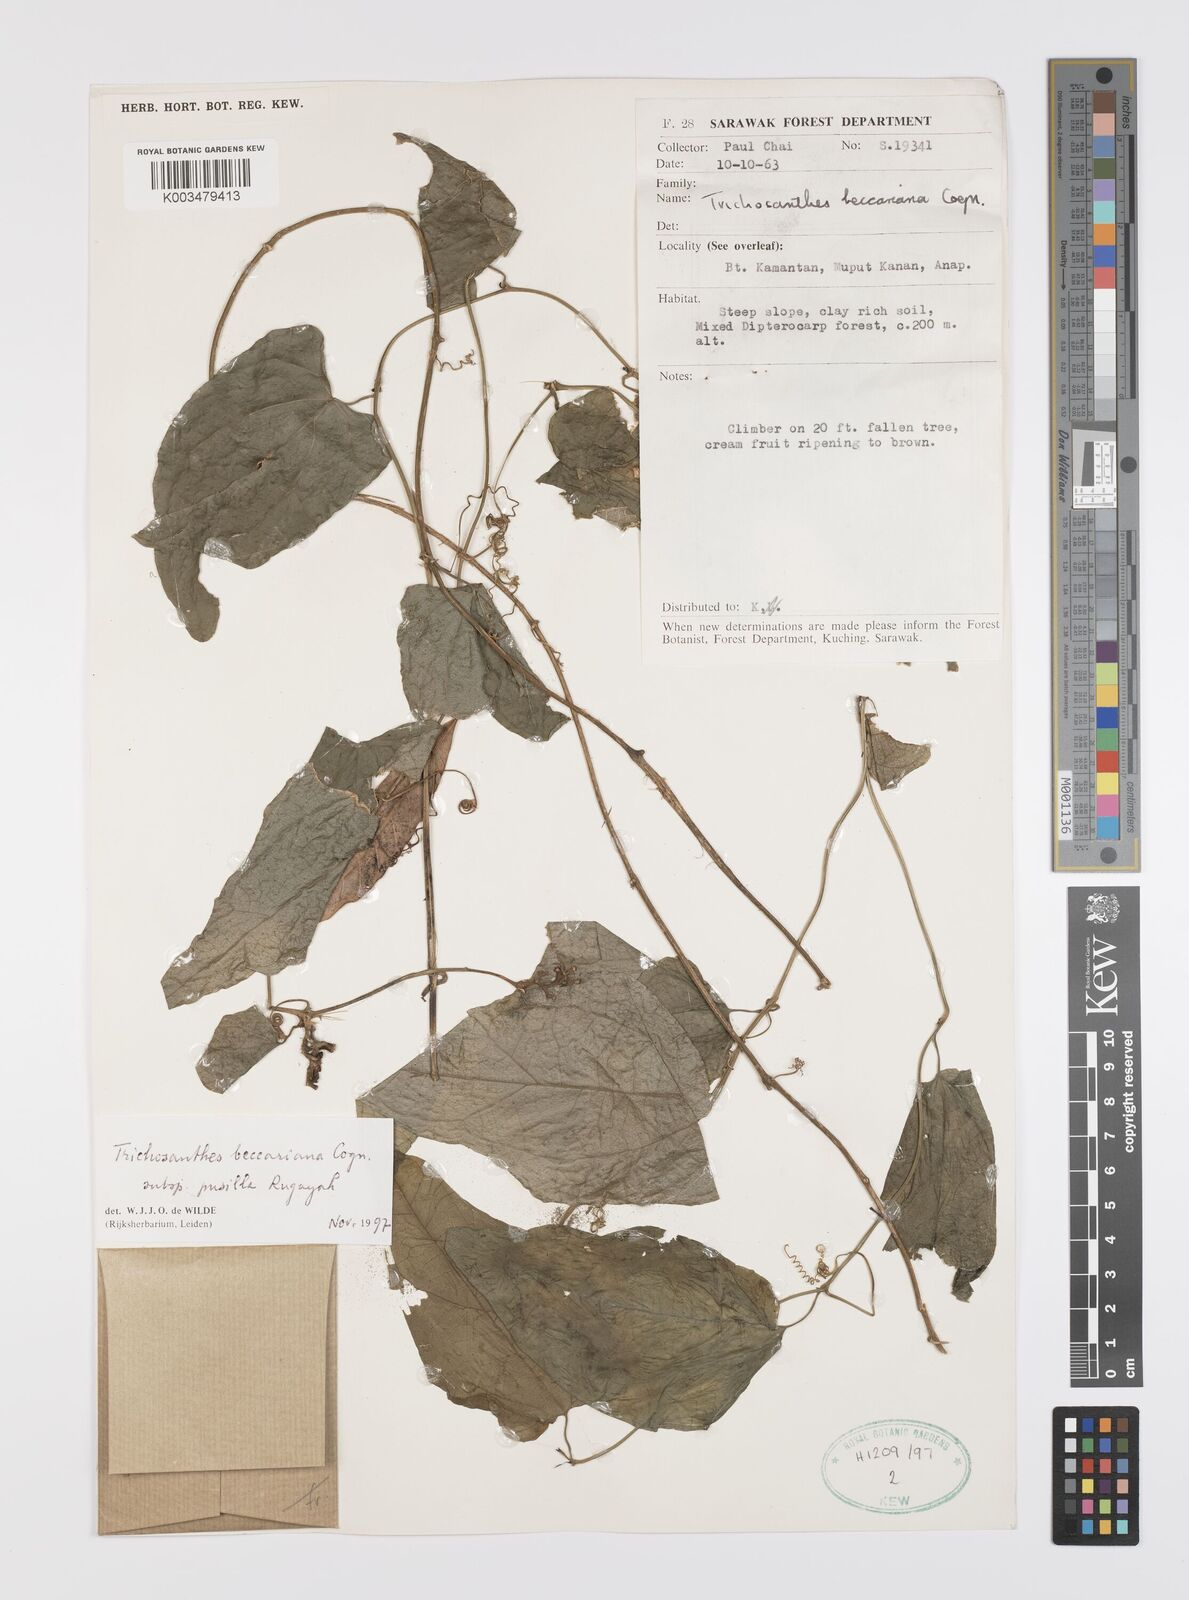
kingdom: Plantae
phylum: Tracheophyta
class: Magnoliopsida
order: Cucurbitales
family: Cucurbitaceae
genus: Trichosanthes
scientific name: Trichosanthes beccariana
